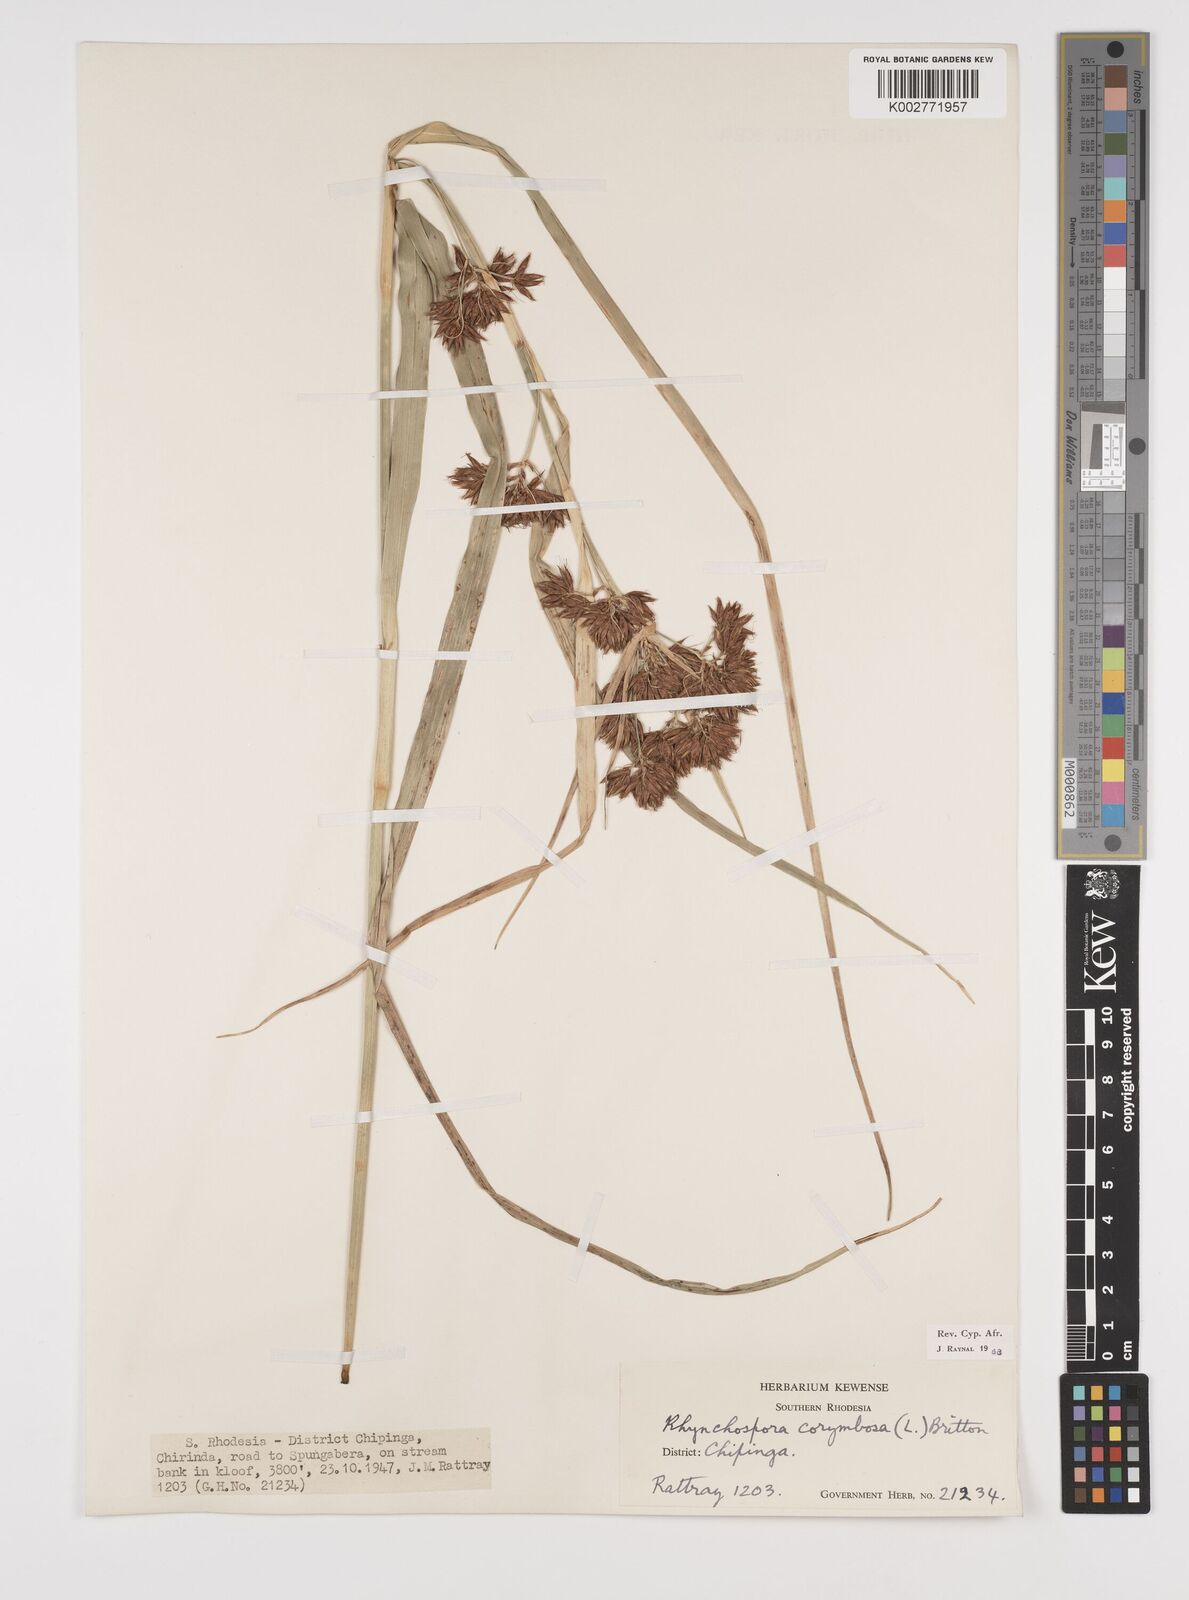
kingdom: Plantae
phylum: Tracheophyta
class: Liliopsida
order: Poales
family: Cyperaceae
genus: Rhynchospora
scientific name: Rhynchospora corymbosa
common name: Golden beak sedge
